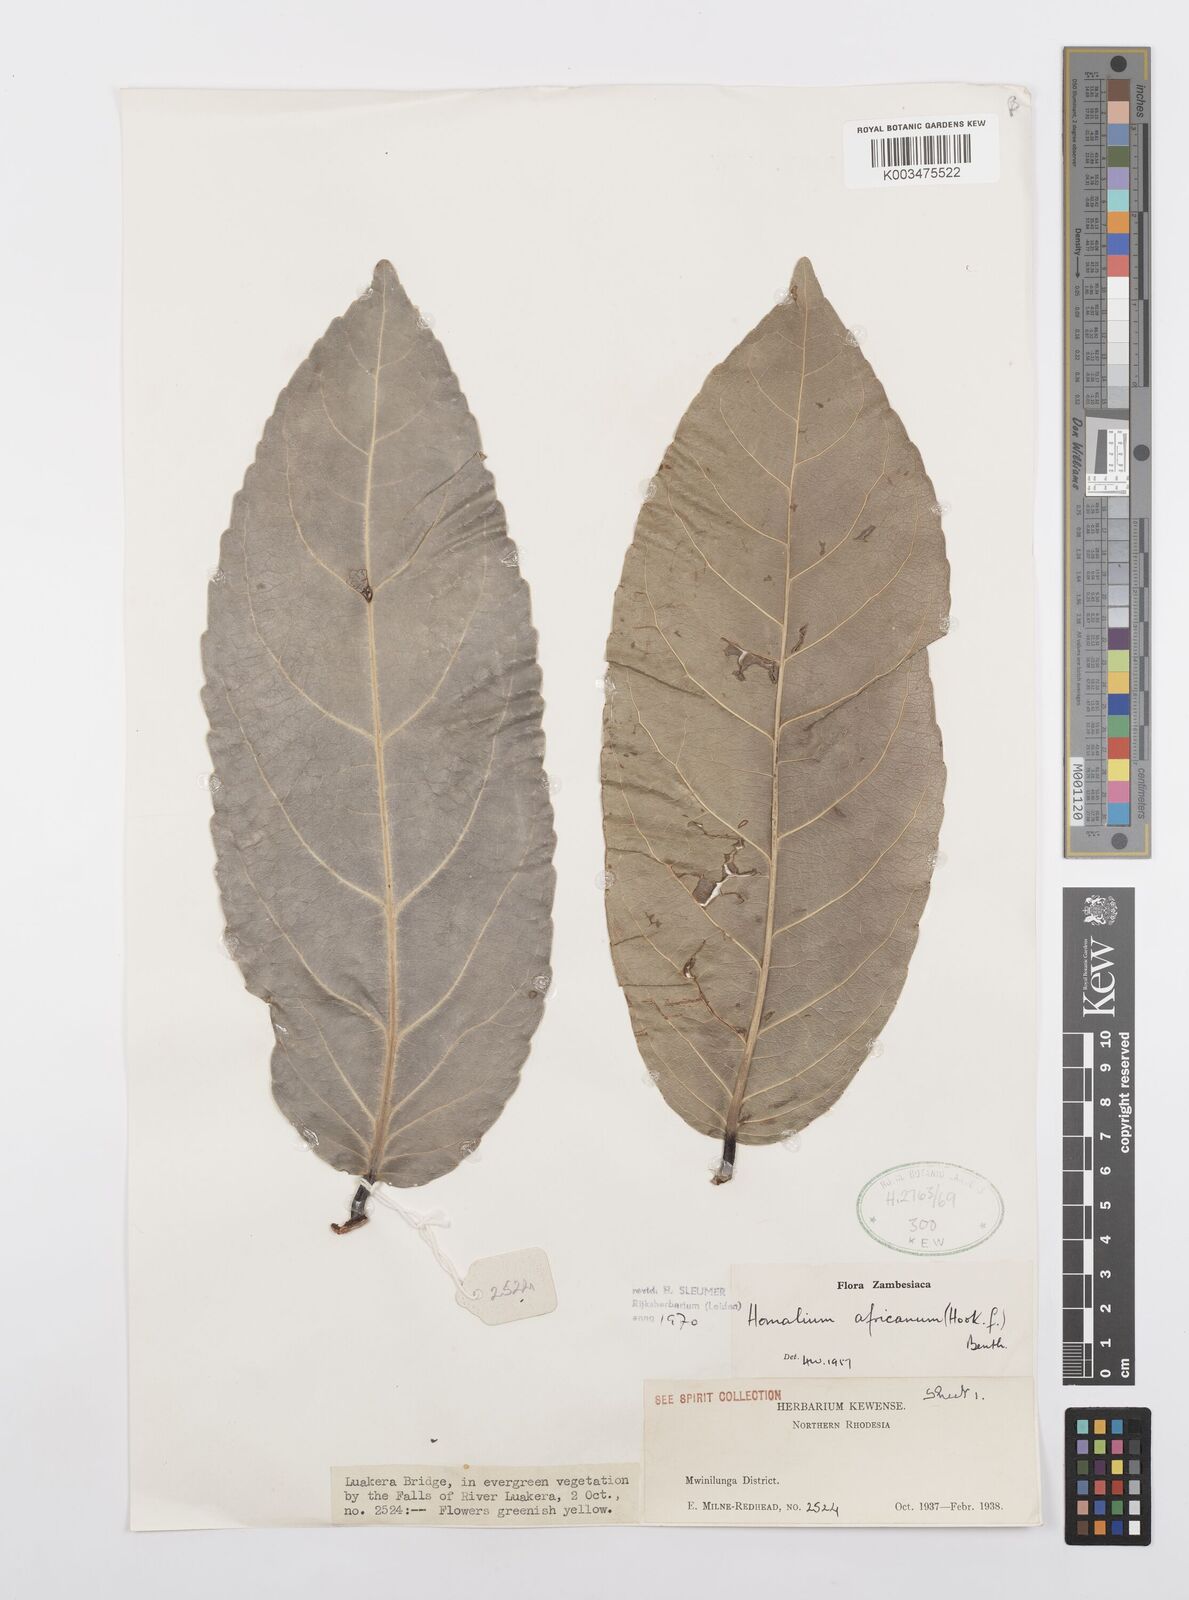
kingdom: Plantae
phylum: Tracheophyta
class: Magnoliopsida
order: Malpighiales
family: Salicaceae
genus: Homalium
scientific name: Homalium africanum
